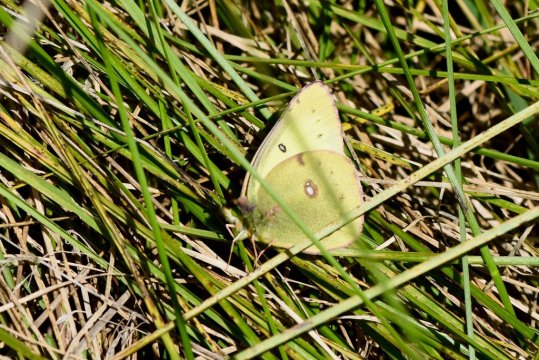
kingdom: Animalia
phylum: Arthropoda
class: Insecta
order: Lepidoptera
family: Pieridae
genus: Colias
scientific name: Colias philodice
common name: Clouded Sulphur
